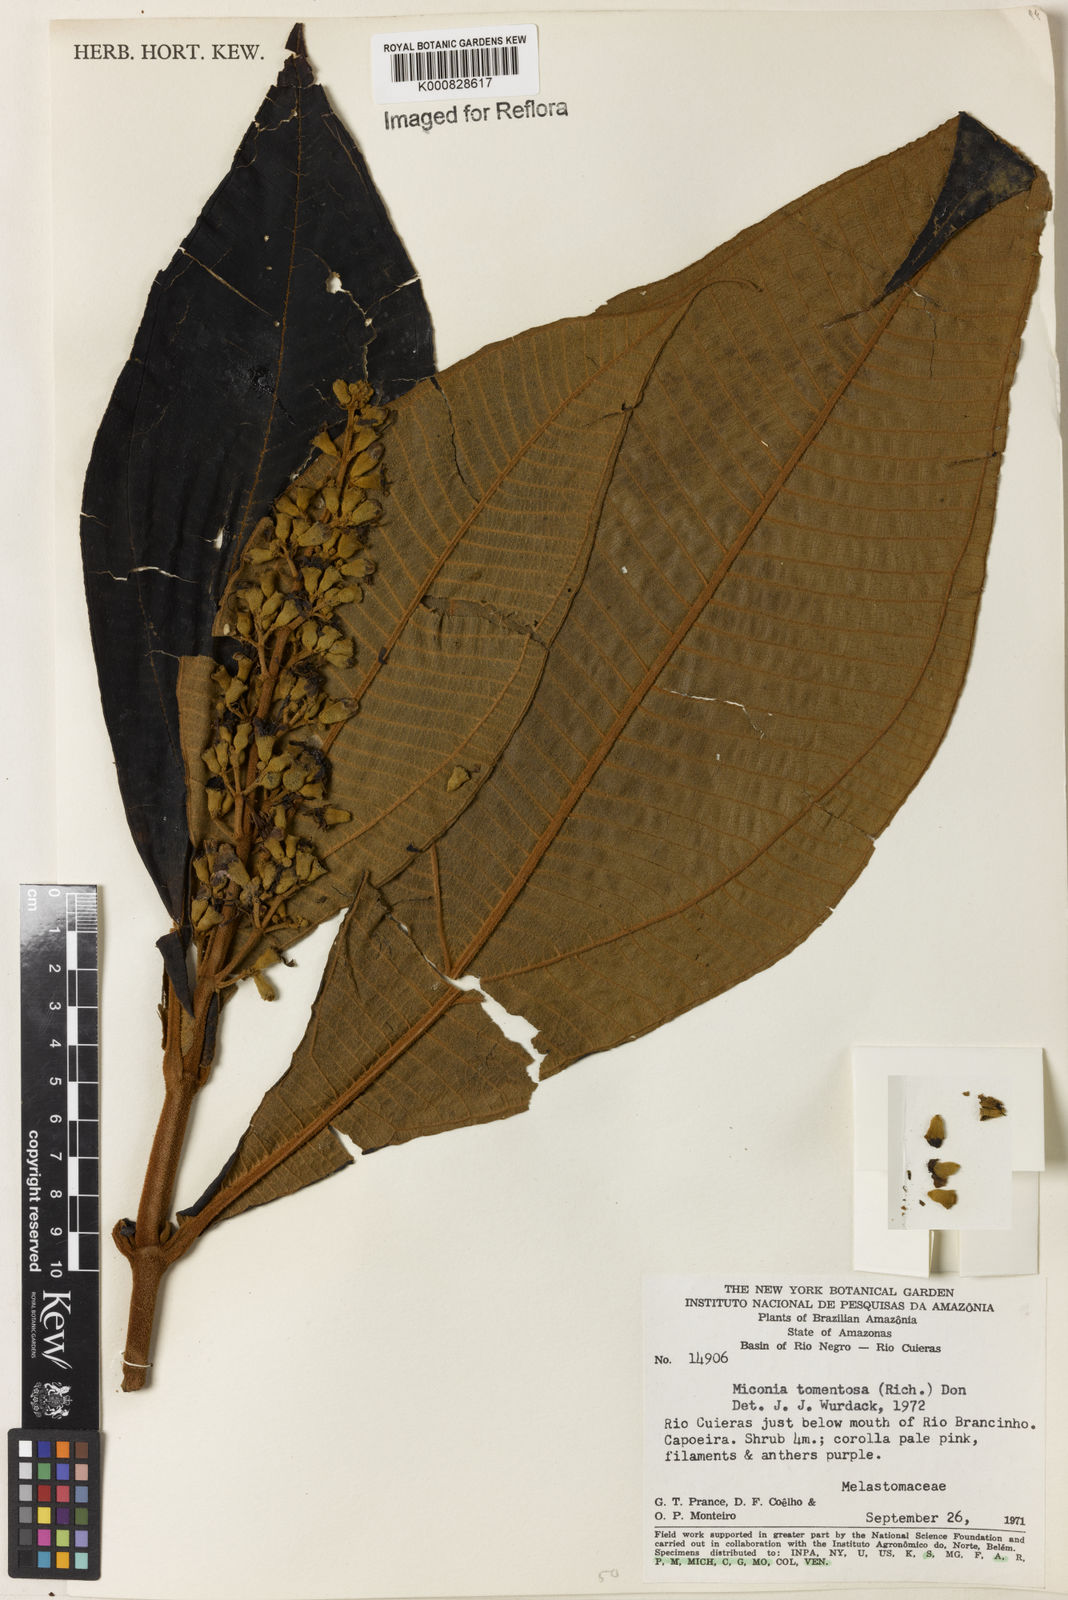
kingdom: Plantae
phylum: Tracheophyta
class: Magnoliopsida
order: Myrtales
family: Melastomataceae
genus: Miconia
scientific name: Miconia tomentosa
